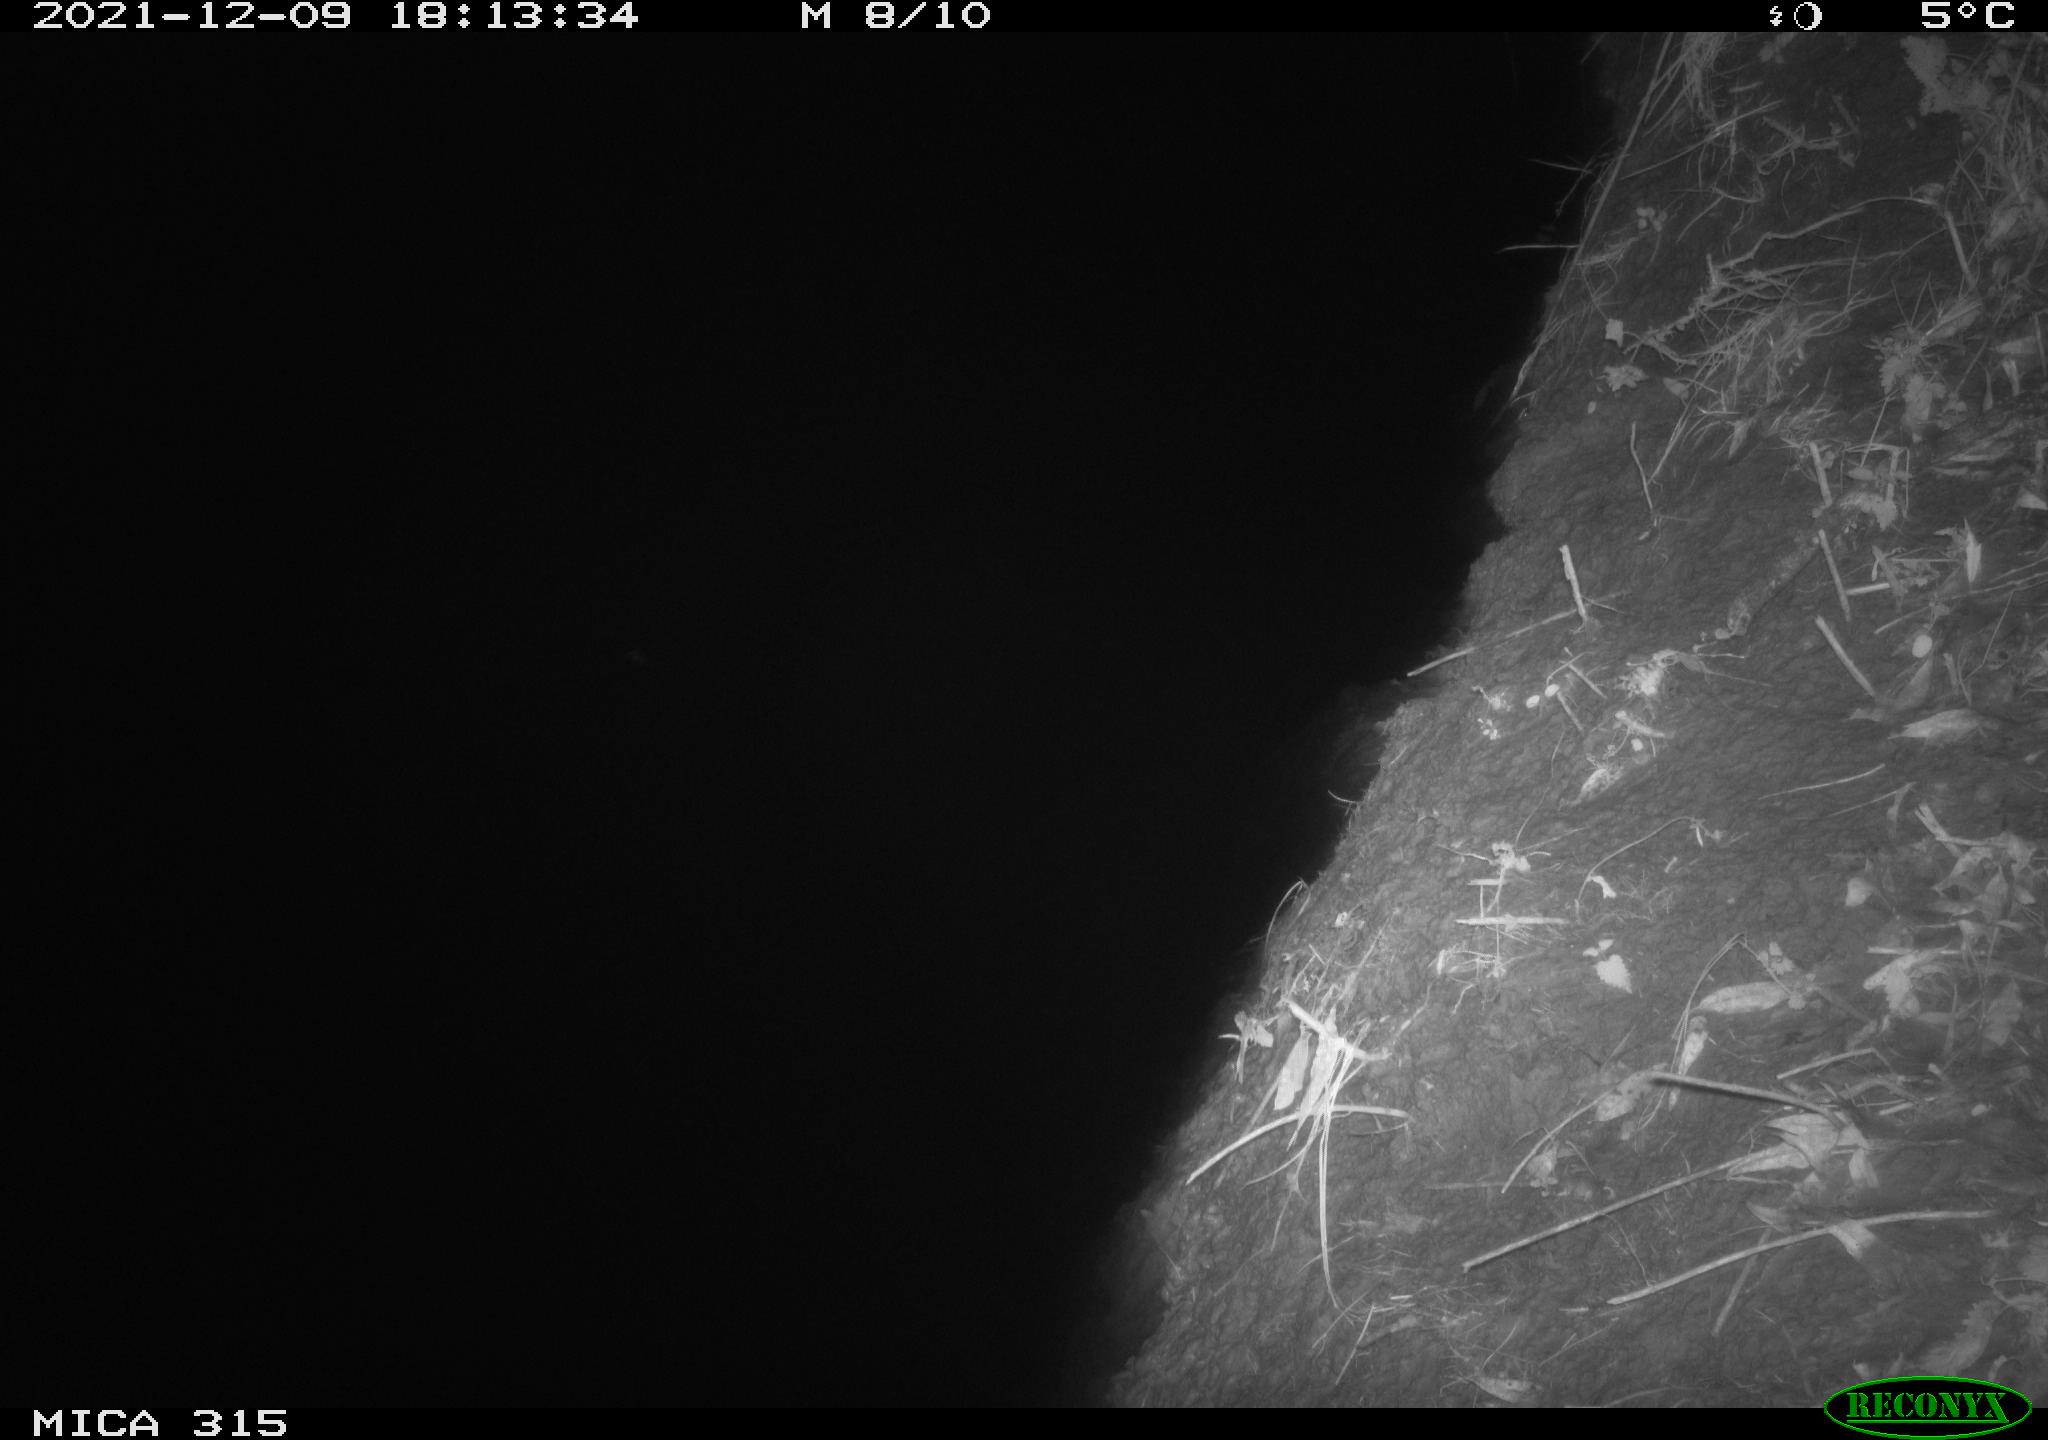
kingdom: Animalia
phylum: Chordata
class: Mammalia
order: Rodentia
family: Muridae
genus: Rattus
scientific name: Rattus norvegicus
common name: Brown rat
